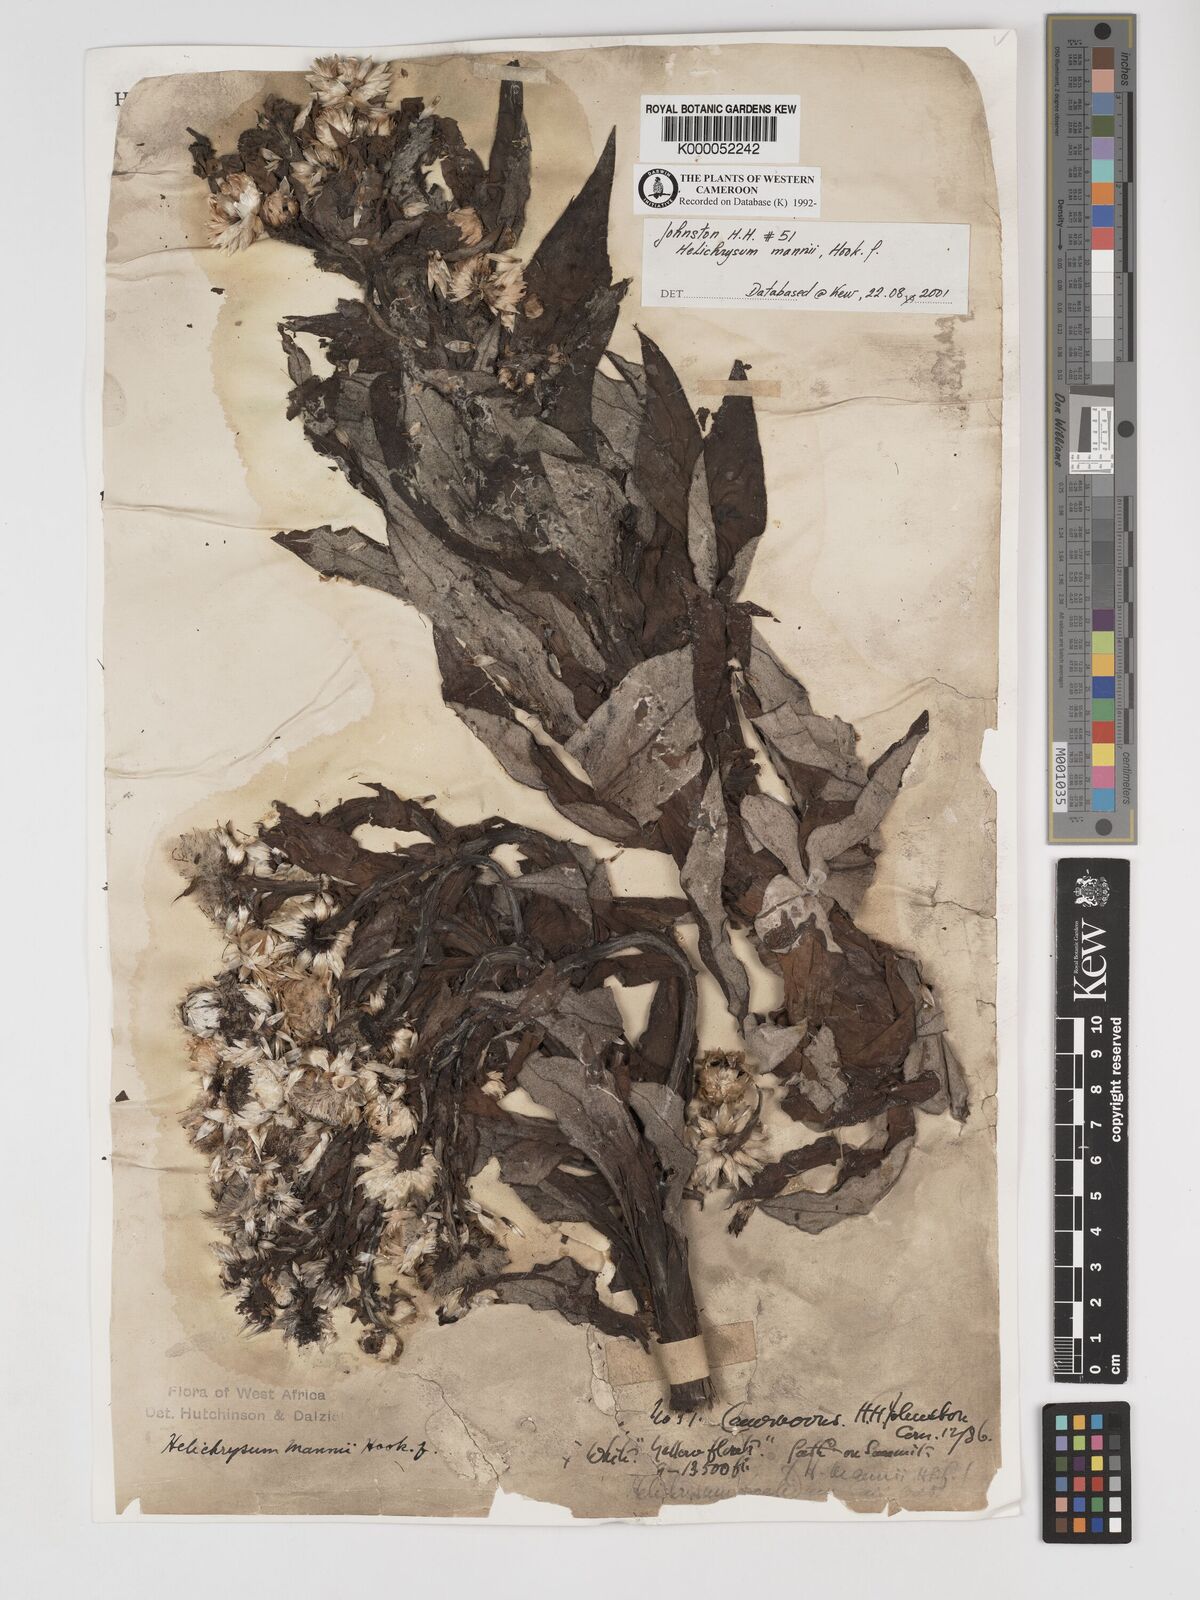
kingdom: Plantae
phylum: Tracheophyta
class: Magnoliopsida
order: Asterales
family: Asteraceae
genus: Helichrysum
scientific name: Helichrysum mannii
